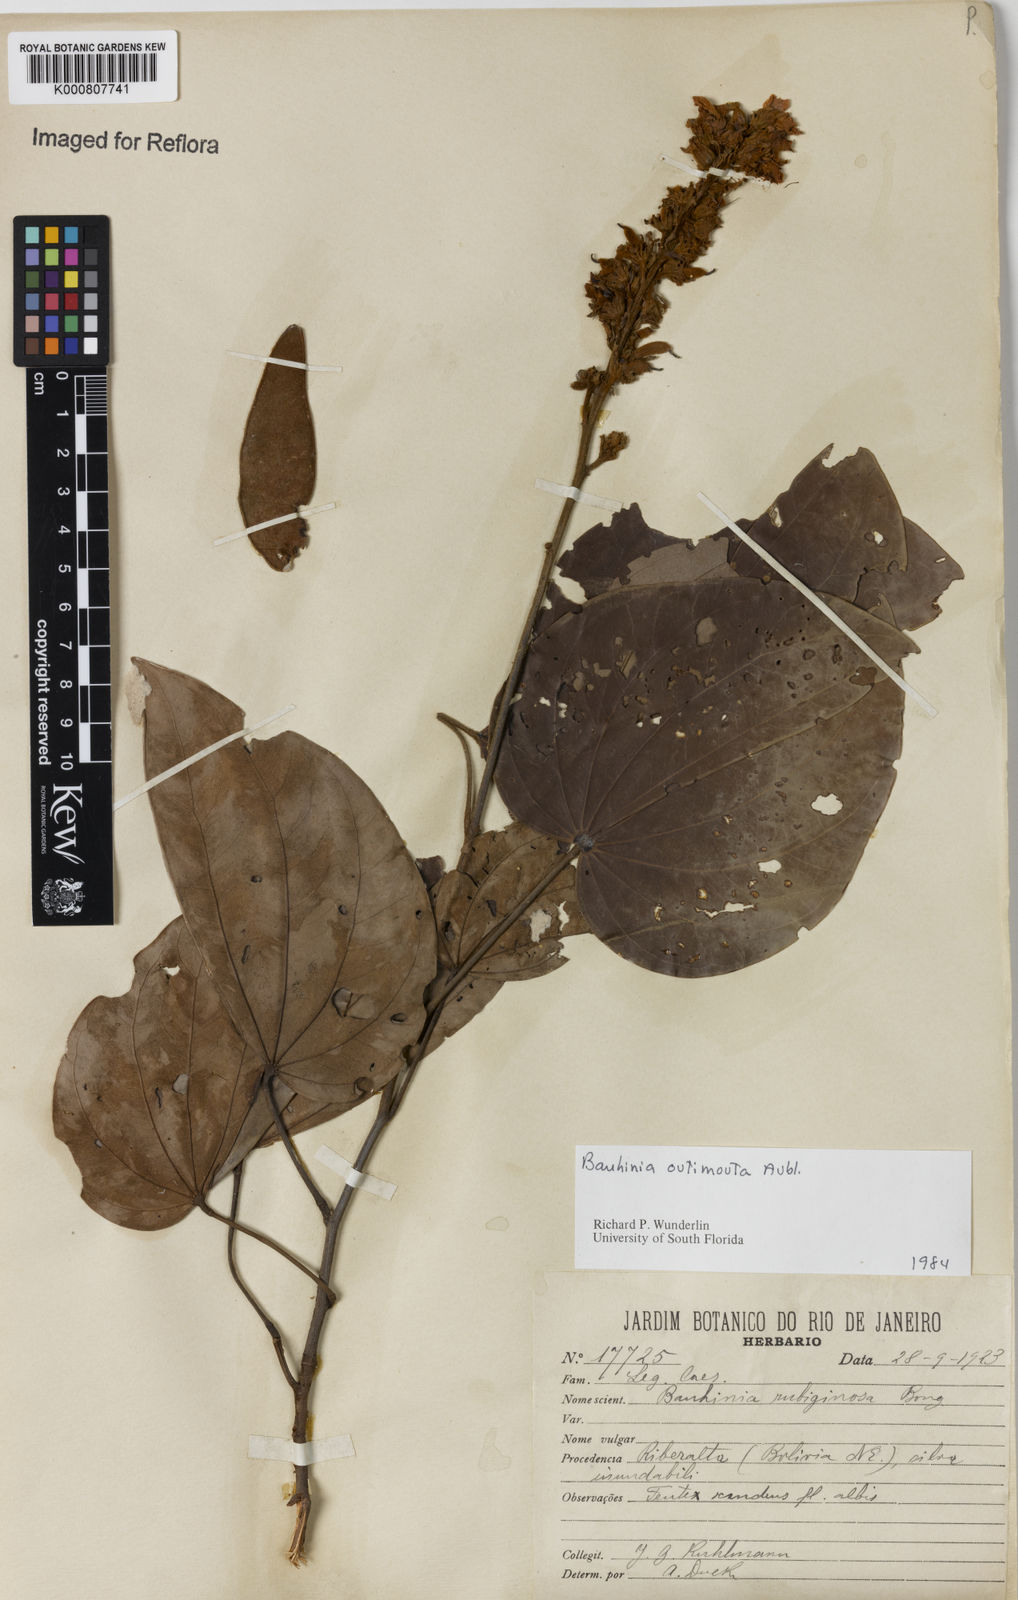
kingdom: Plantae
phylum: Tracheophyta
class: Magnoliopsida
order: Fabales
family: Fabaceae
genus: Schnella
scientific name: Schnella outimouta
